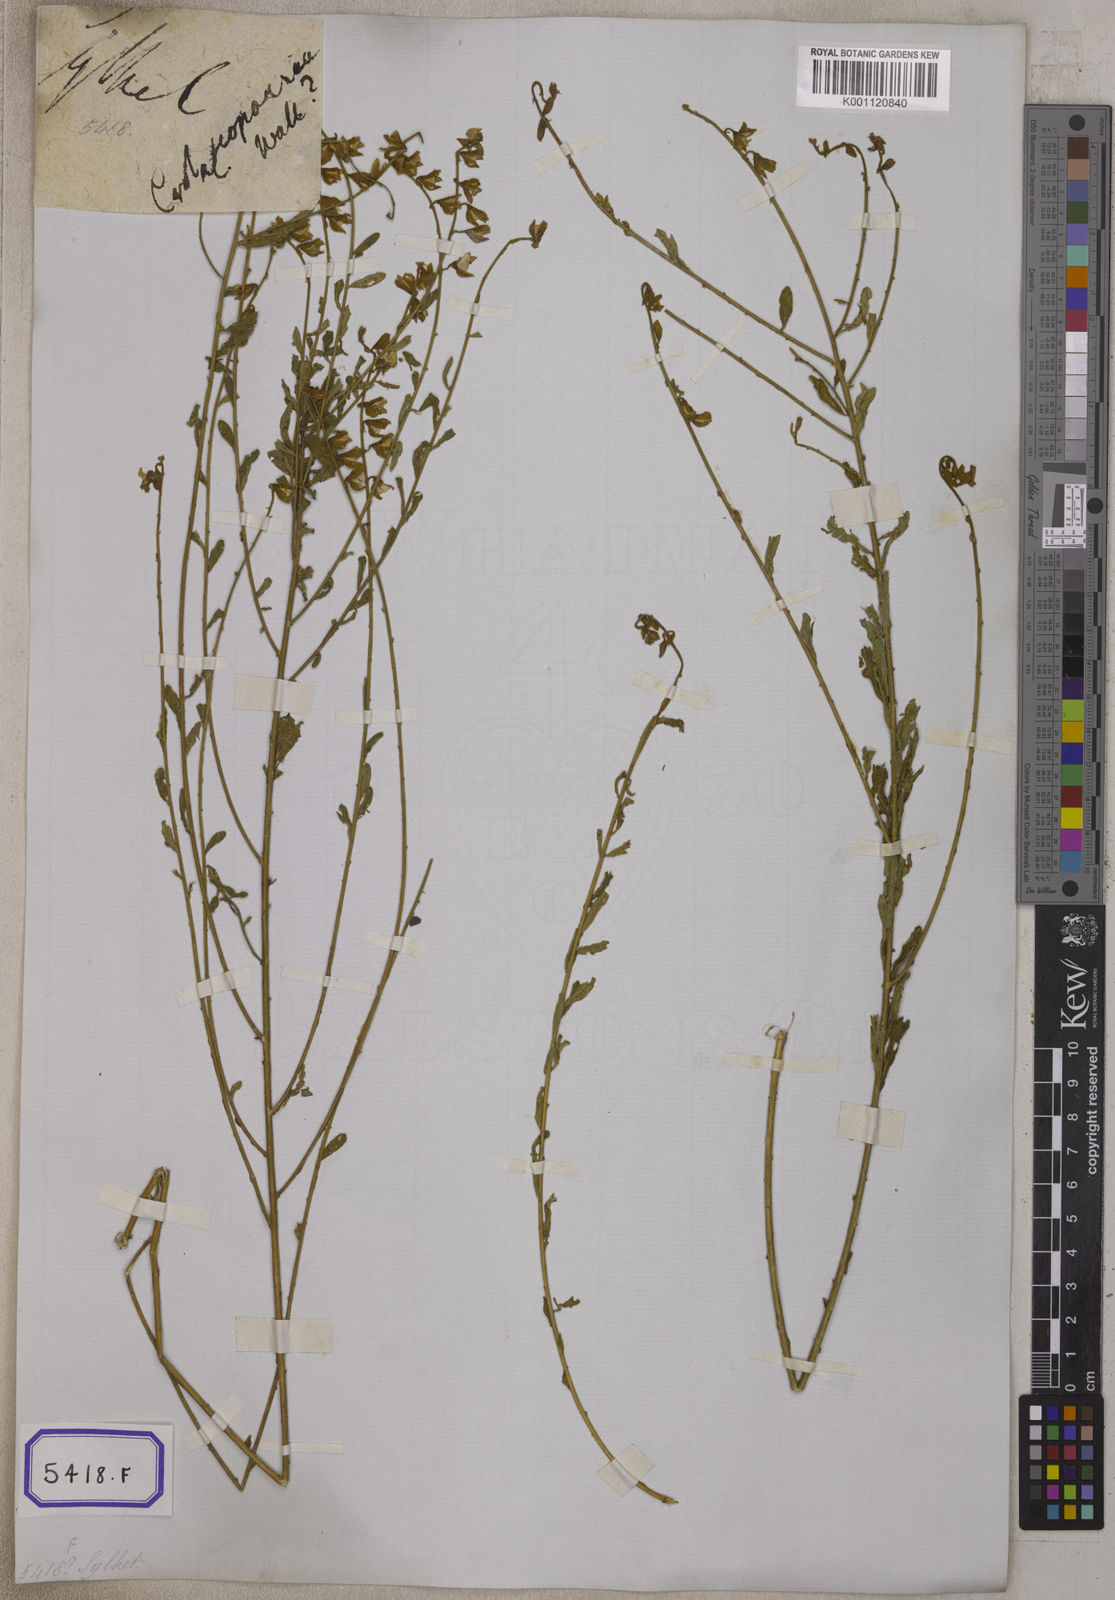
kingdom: Plantae
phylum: Tracheophyta
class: Magnoliopsida
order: Fabales
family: Fabaceae
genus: Crotalaria
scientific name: Crotalaria albida
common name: Taiwan crotalaria
